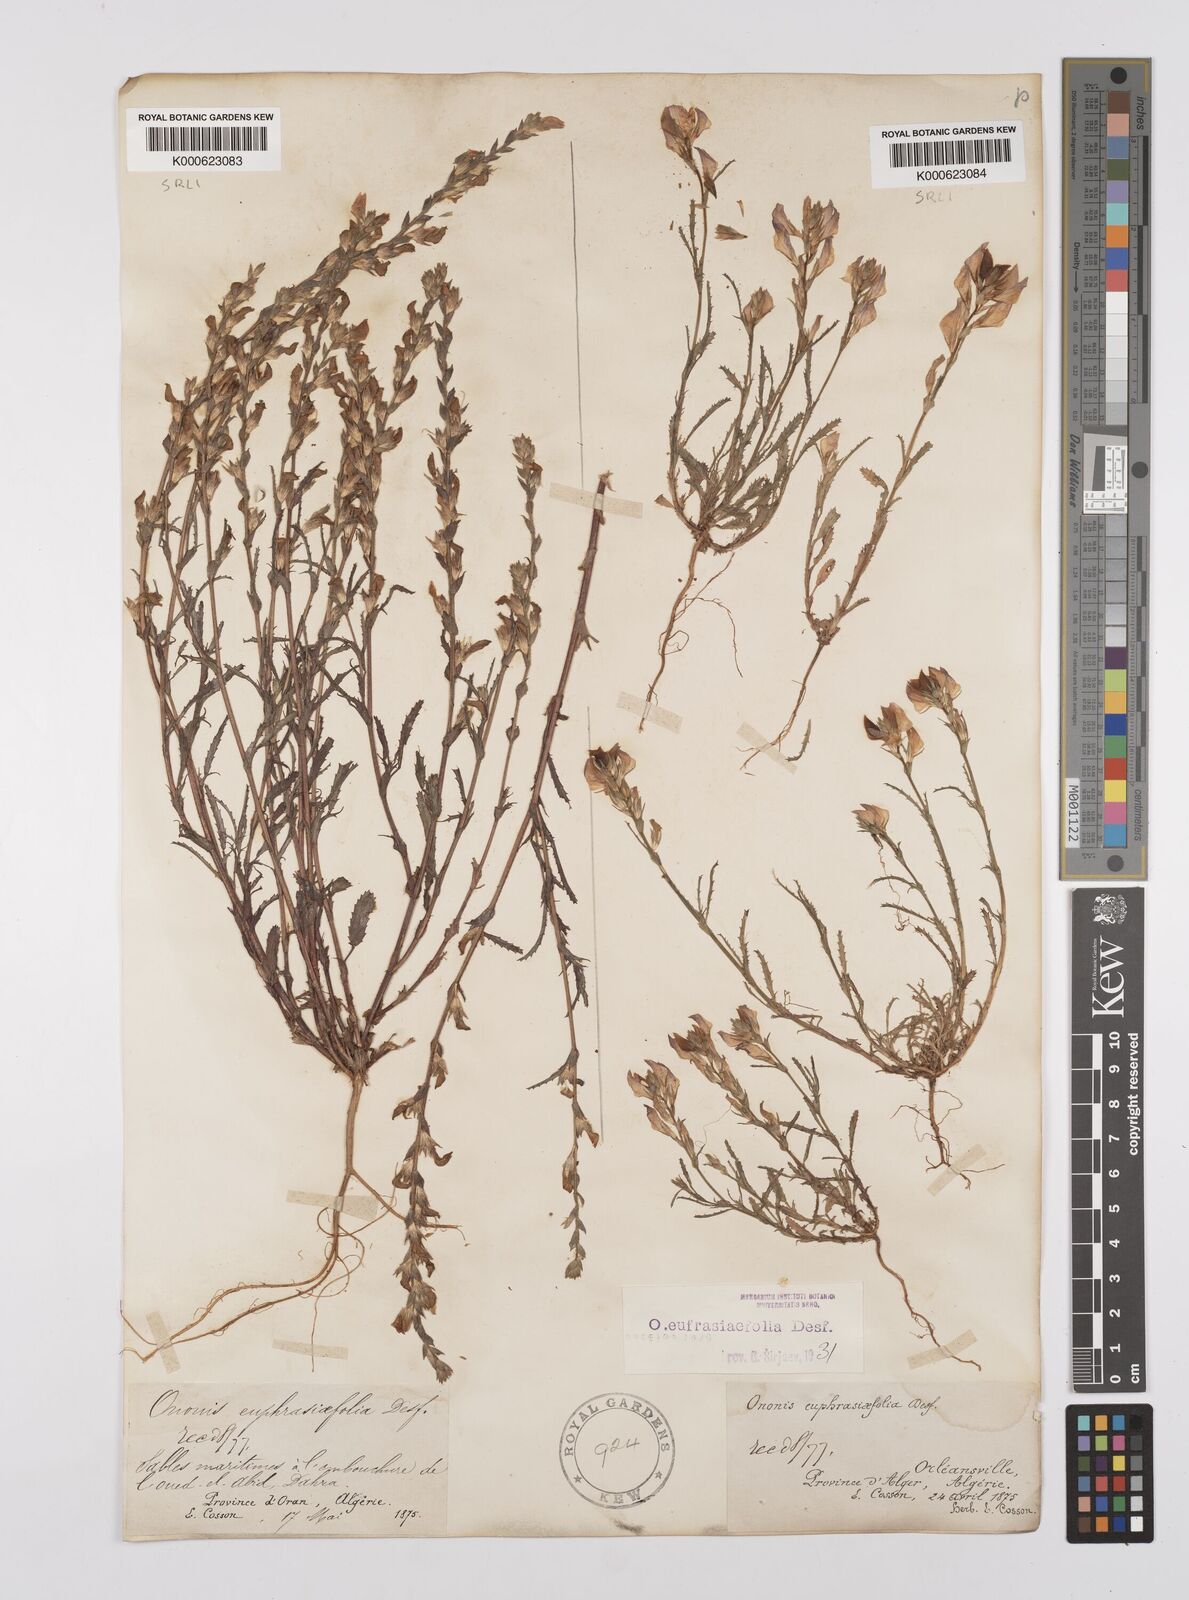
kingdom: Plantae
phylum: Tracheophyta
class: Magnoliopsida
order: Fabales
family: Fabaceae
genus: Ononis
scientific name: Ononis
